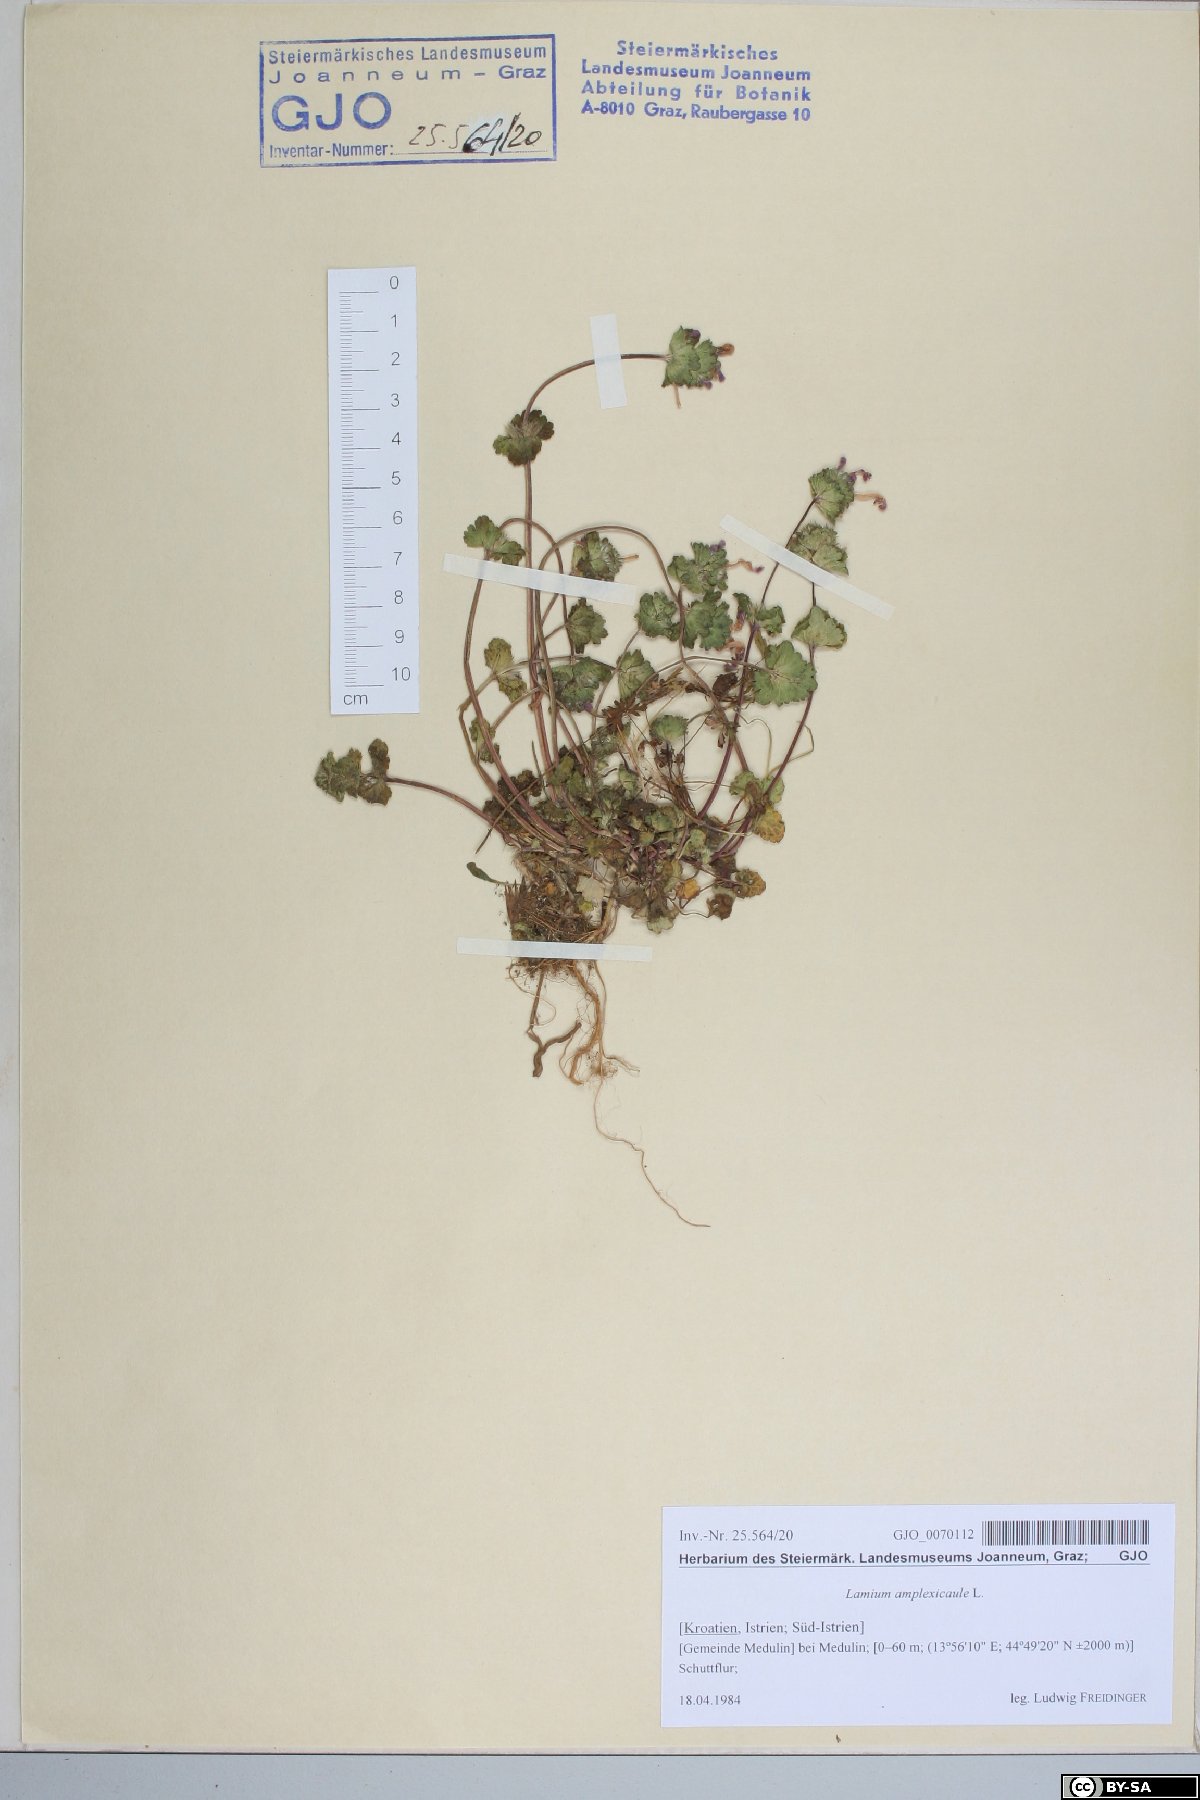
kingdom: Plantae
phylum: Tracheophyta
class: Magnoliopsida
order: Lamiales
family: Lamiaceae
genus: Lamium
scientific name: Lamium amplexicaule
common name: Henbit dead-nettle
